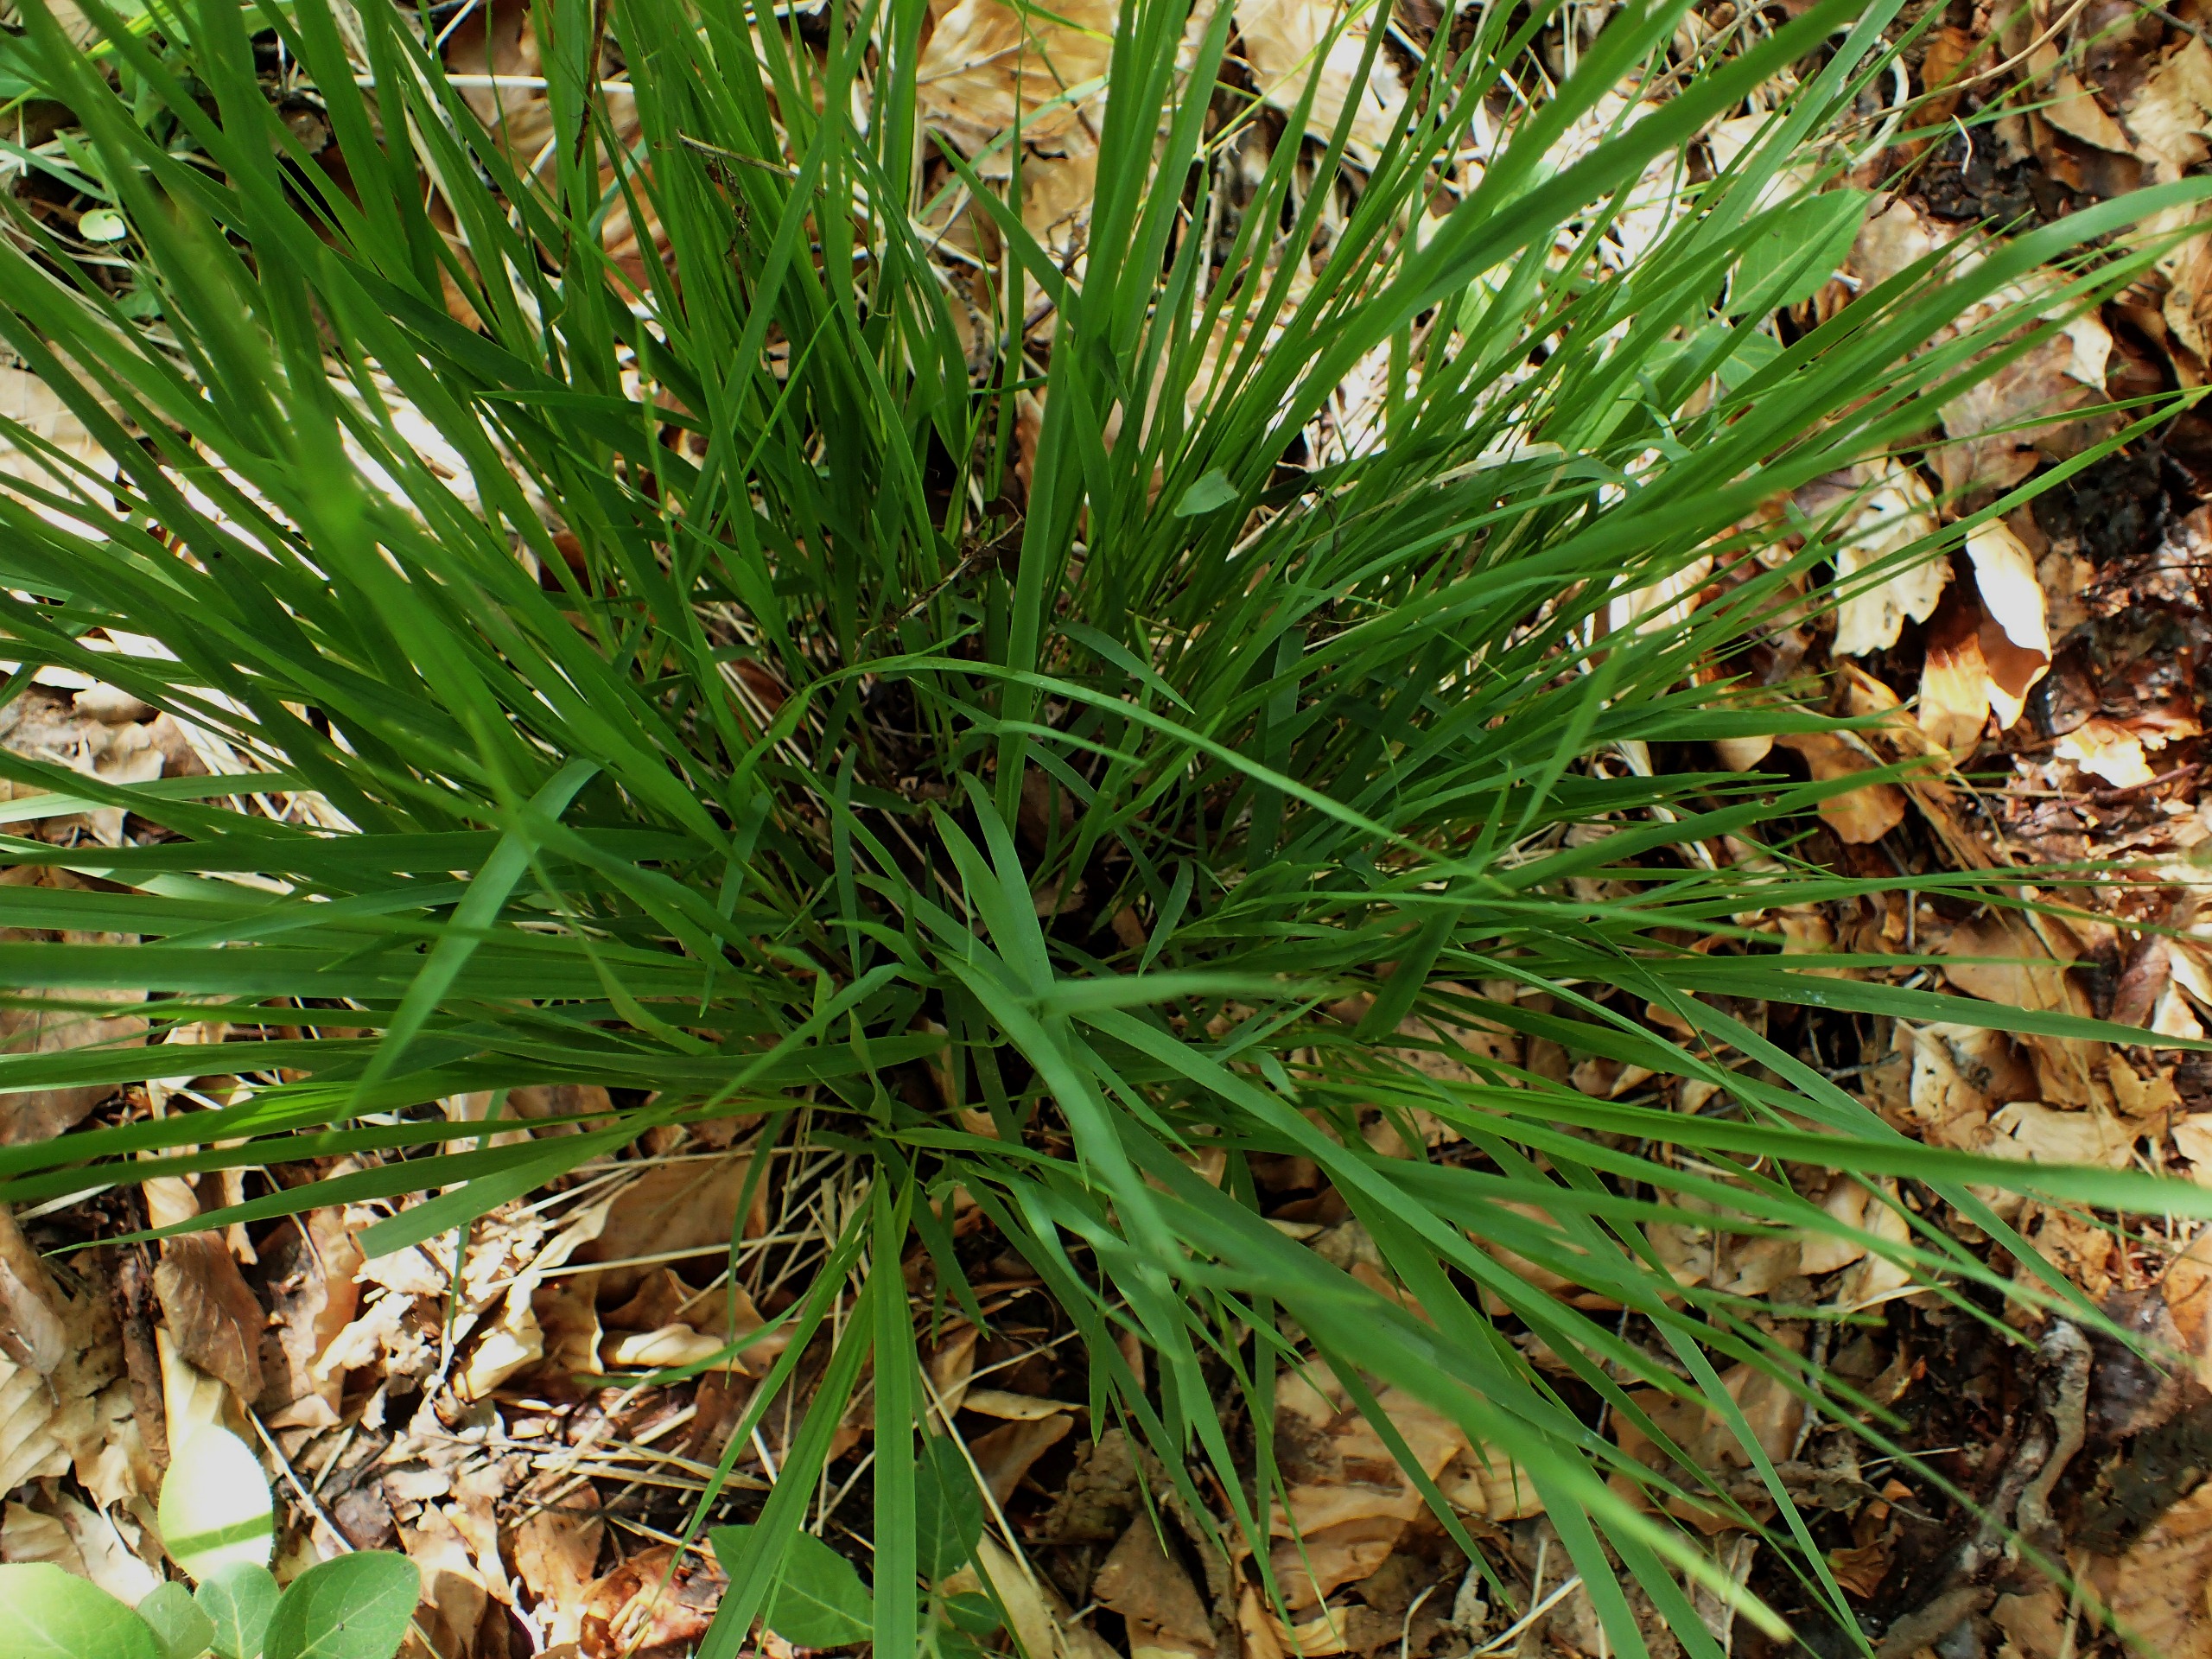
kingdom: Plantae
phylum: Tracheophyta
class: Liliopsida
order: Poales
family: Poaceae
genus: Molinia
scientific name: Molinia caerulea
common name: Blåtop
